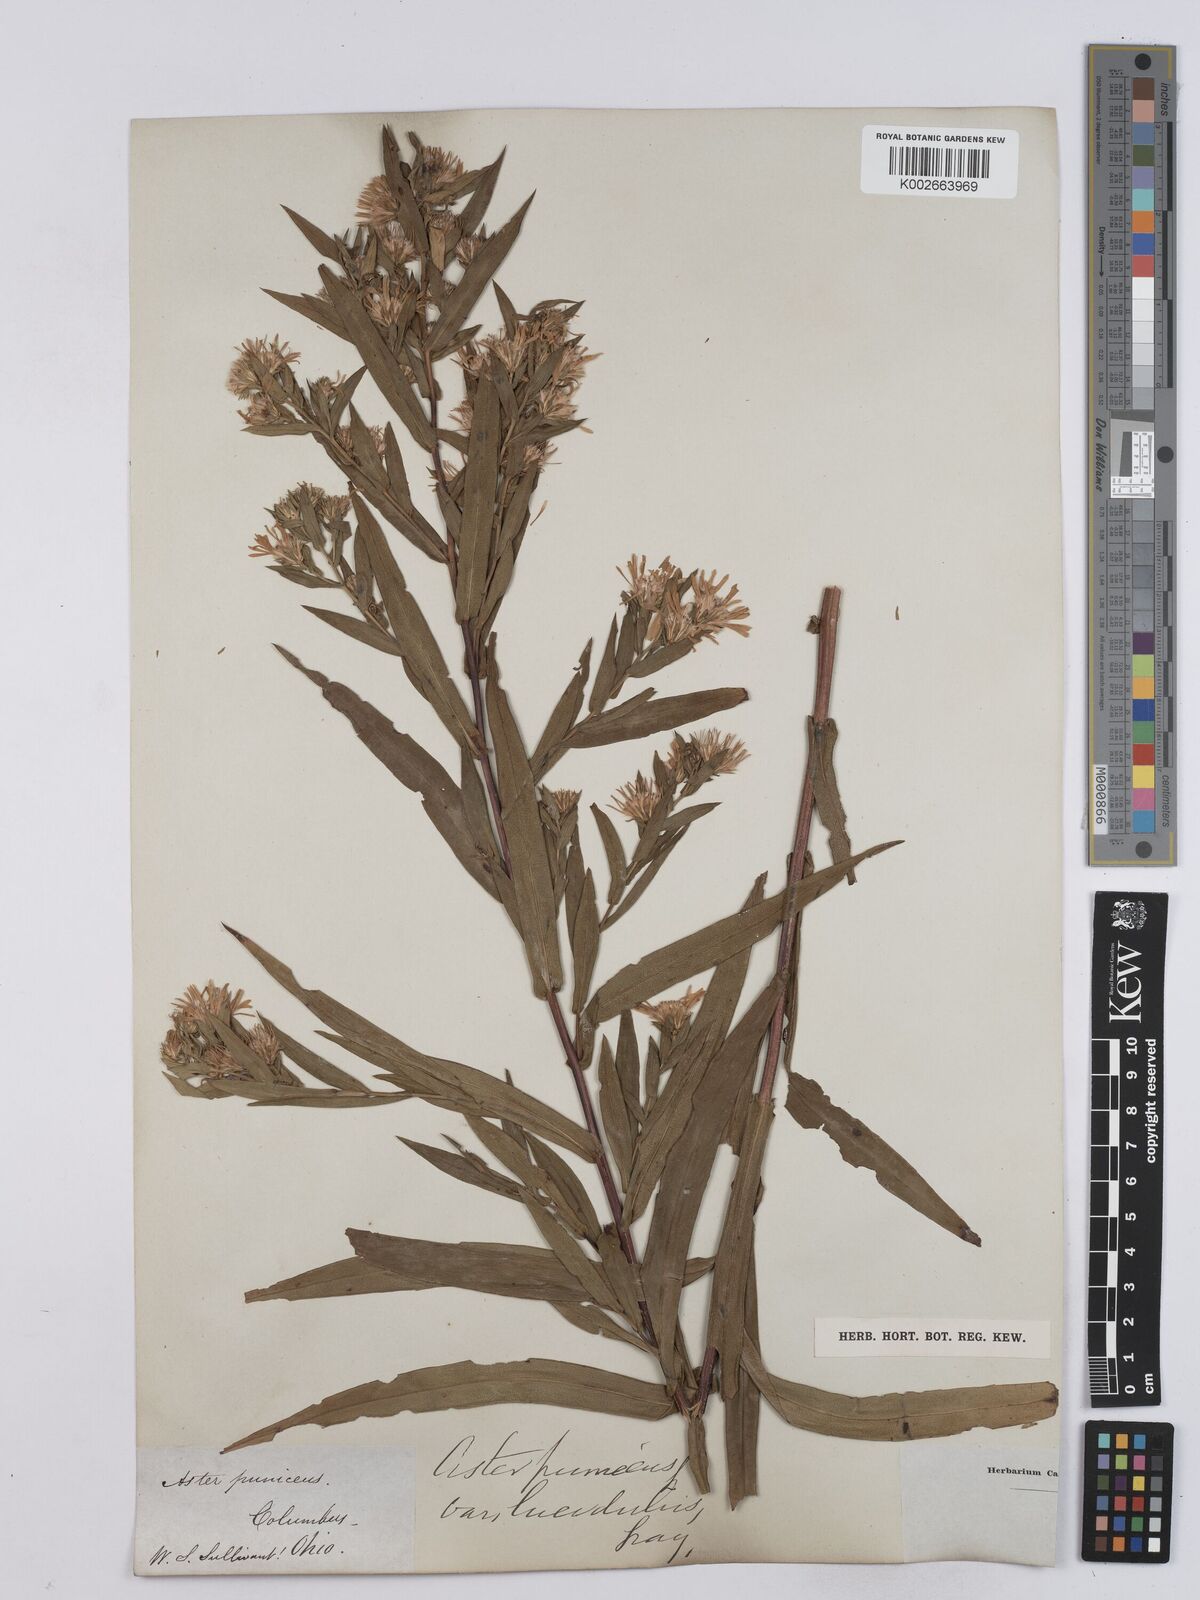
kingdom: Plantae
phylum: Tracheophyta
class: Magnoliopsida
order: Asterales
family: Asteraceae
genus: Symphyotrichum
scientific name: Symphyotrichum puniceum
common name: Bog aster
